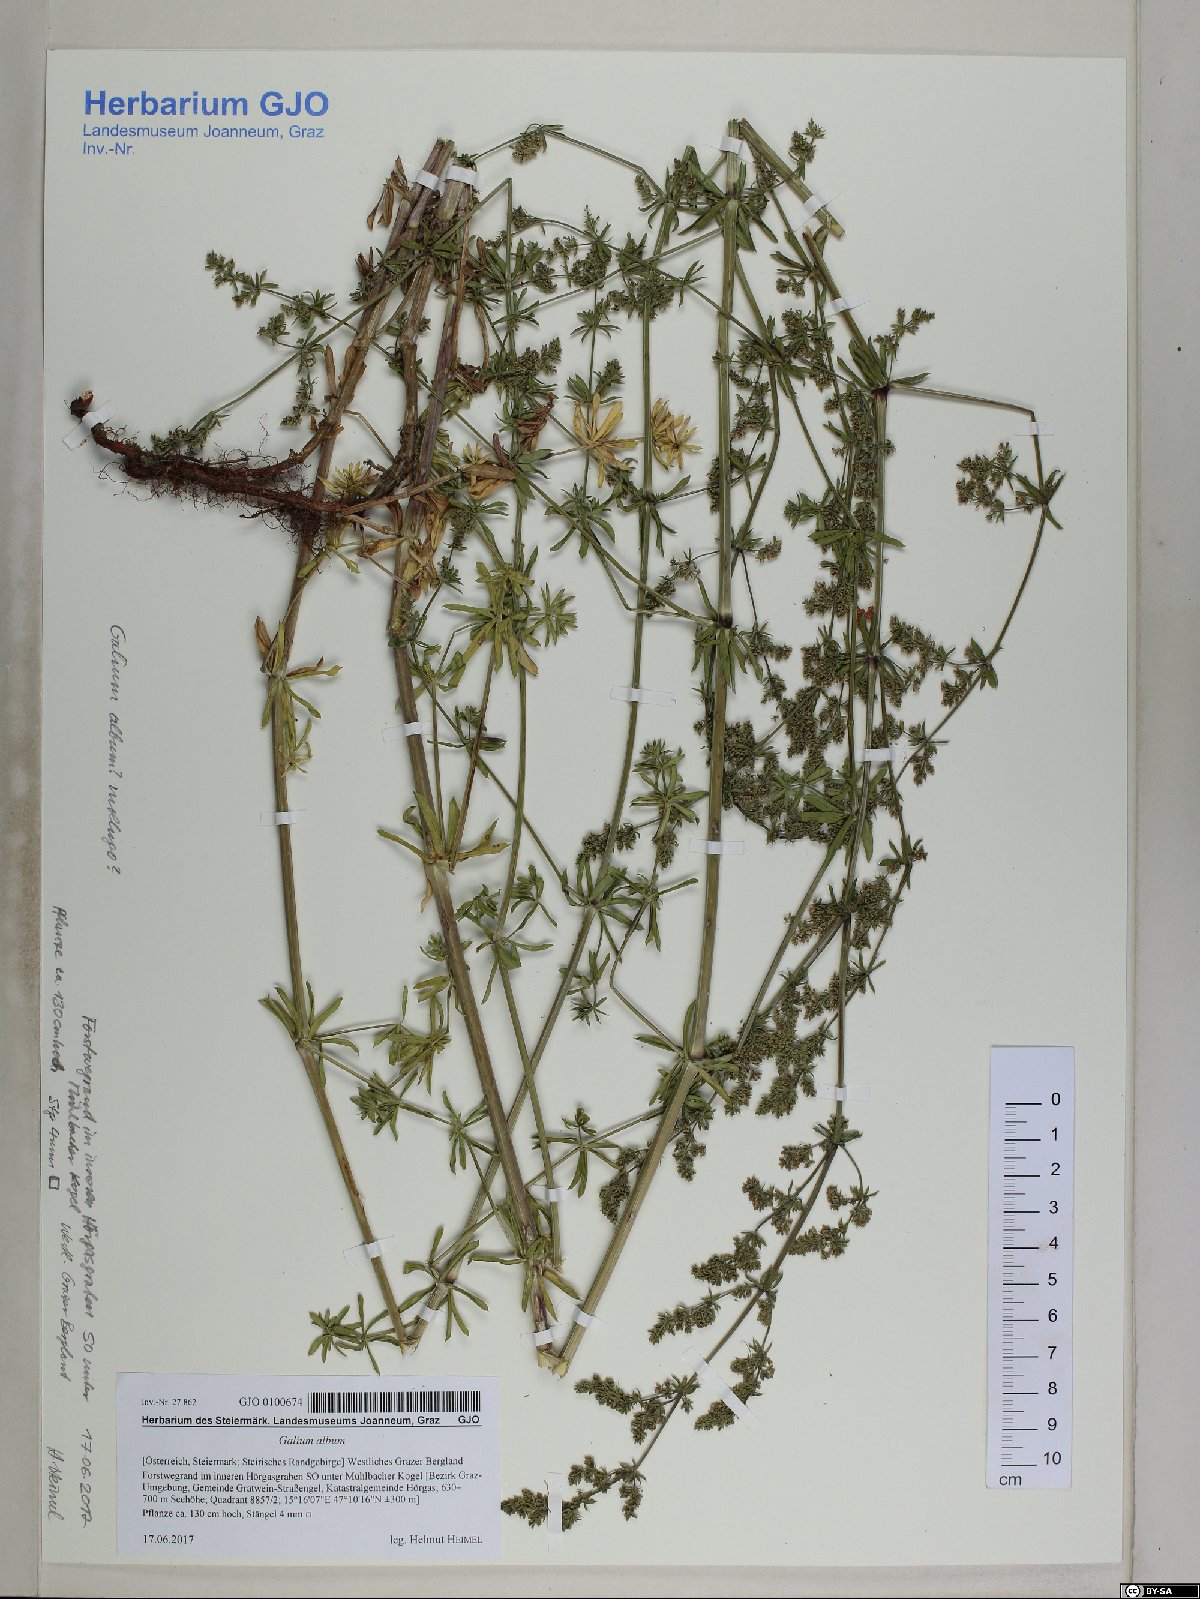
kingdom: Plantae
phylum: Tracheophyta
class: Magnoliopsida
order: Gentianales
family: Rubiaceae
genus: Galium
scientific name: Galium album
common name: White bedstraw
